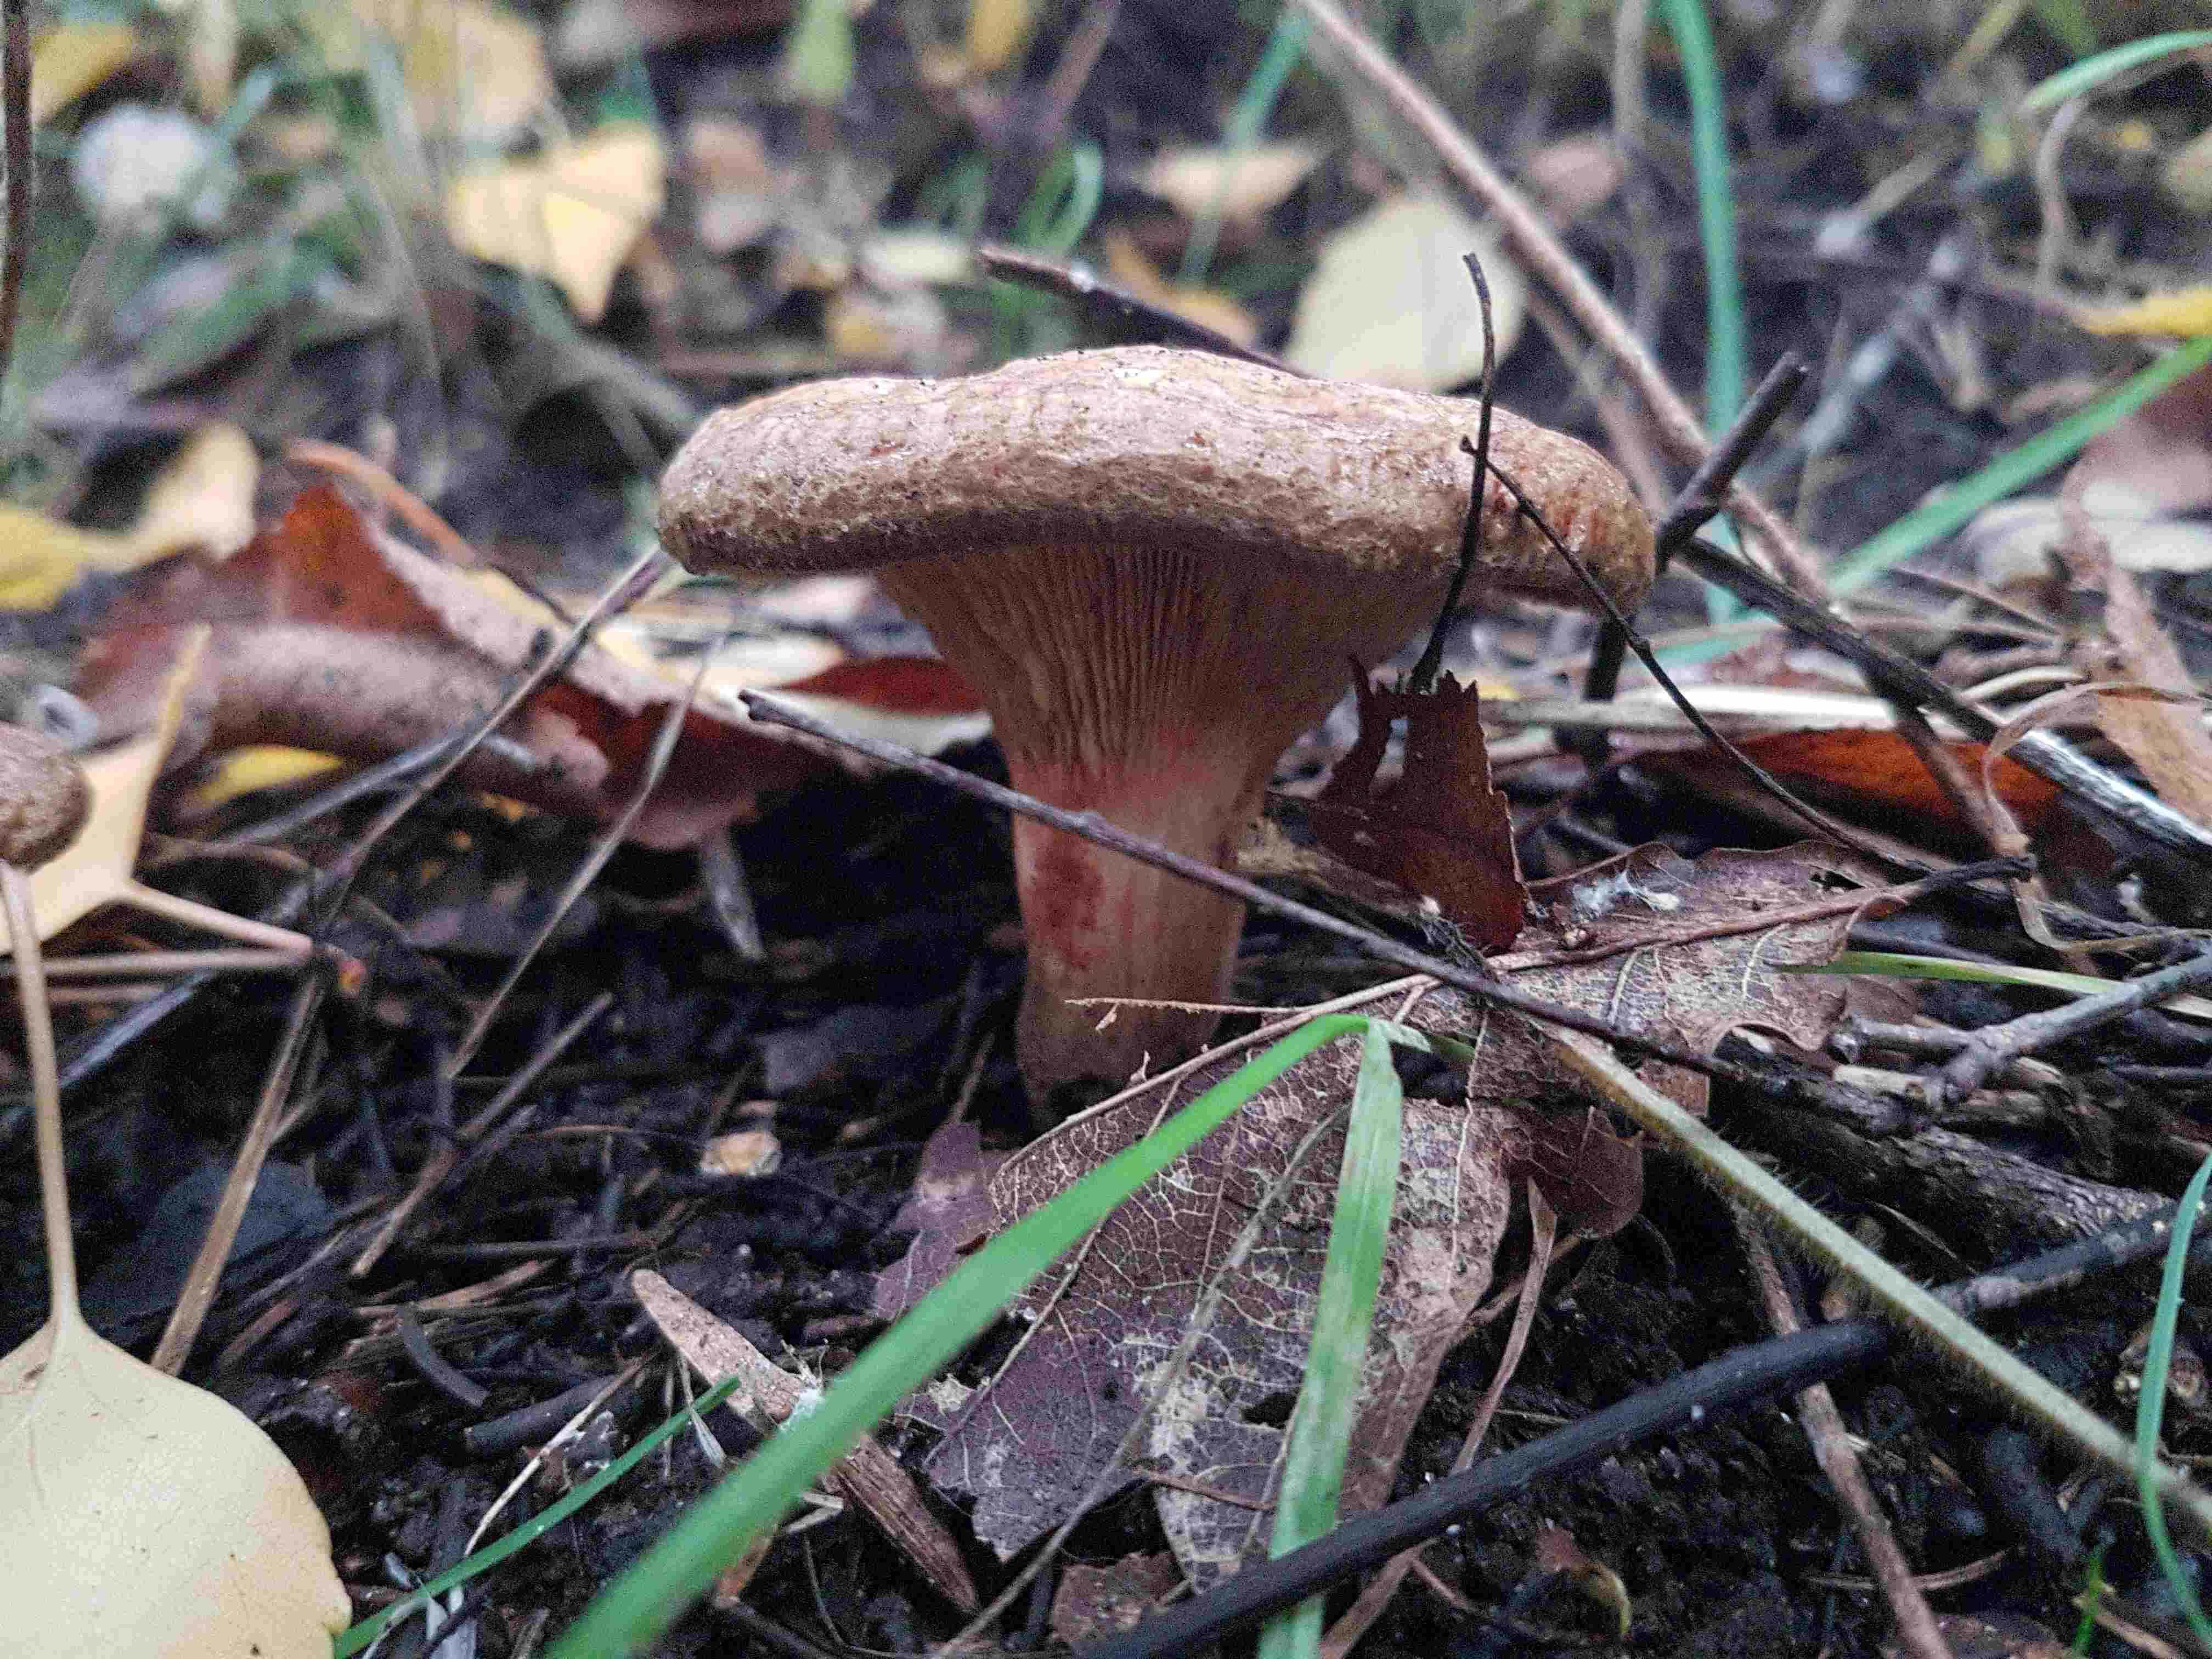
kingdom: Fungi
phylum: Basidiomycota
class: Agaricomycetes
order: Boletales
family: Paxillaceae
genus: Paxillus
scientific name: Paxillus involutus
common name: almindelig netbladhat
